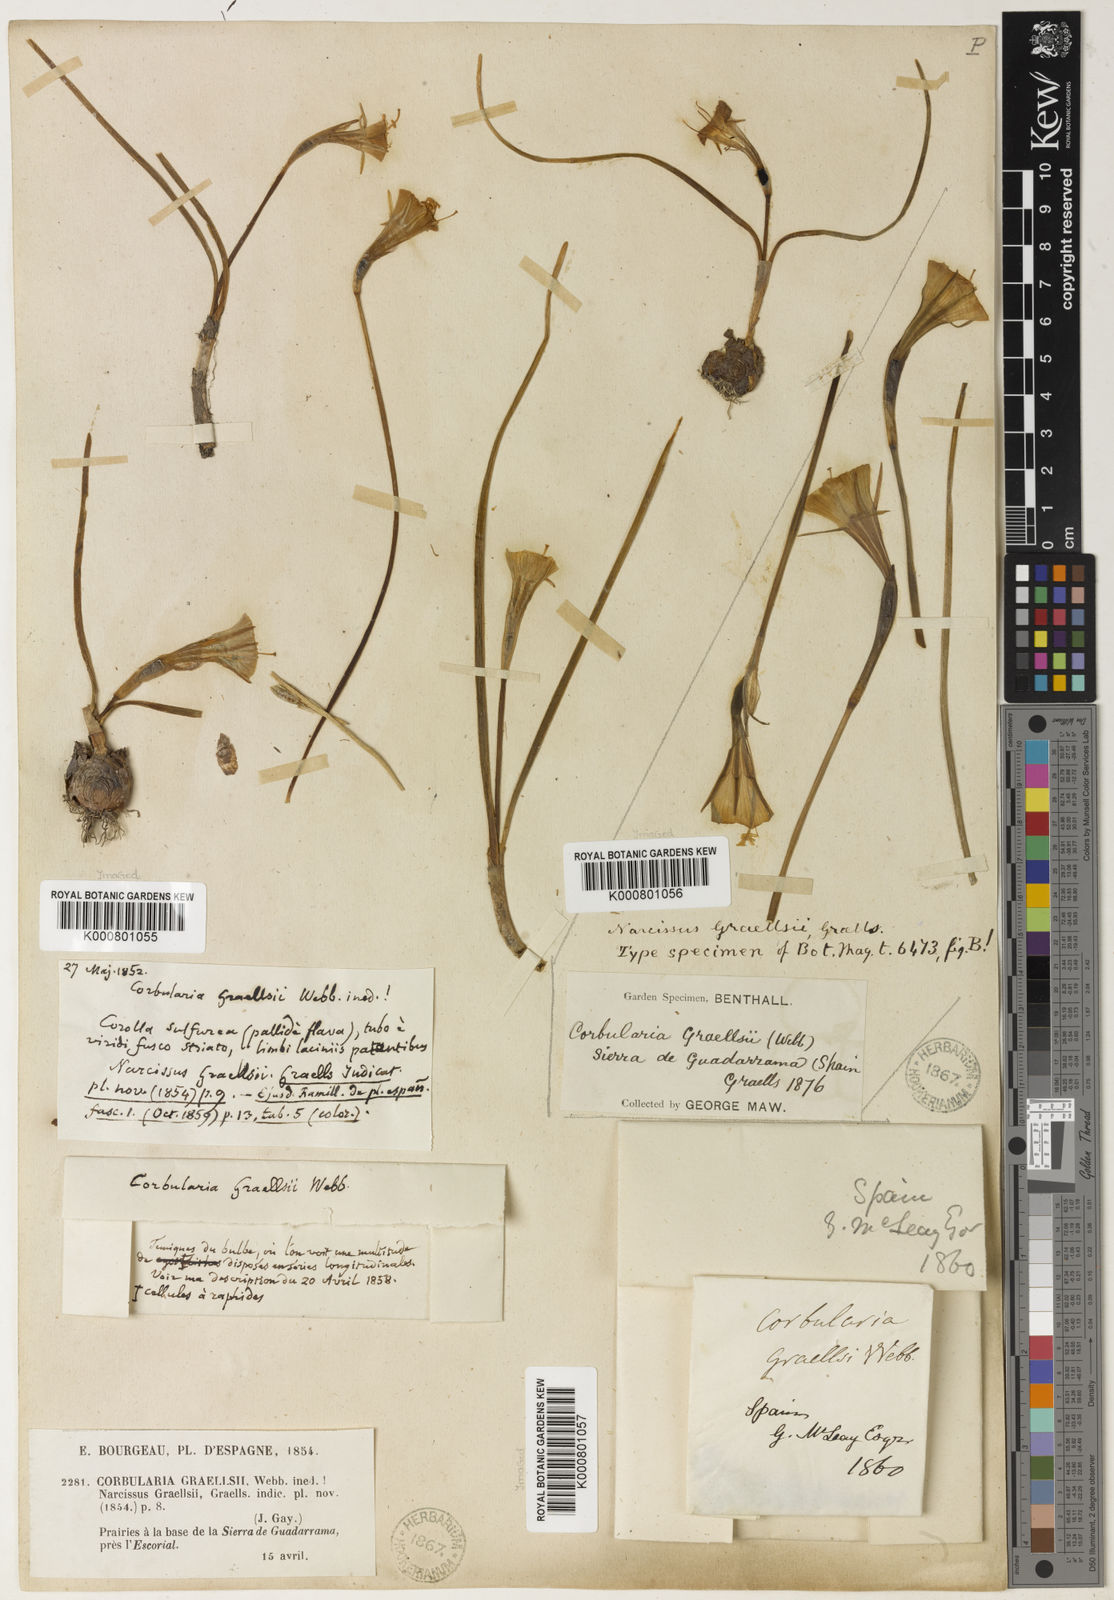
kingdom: Plantae
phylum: Tracheophyta
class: Liliopsida
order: Asparagales
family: Amaryllidaceae
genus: Narcissus
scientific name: Narcissus bulbocodium
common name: Hoop-petticoat daffodil
